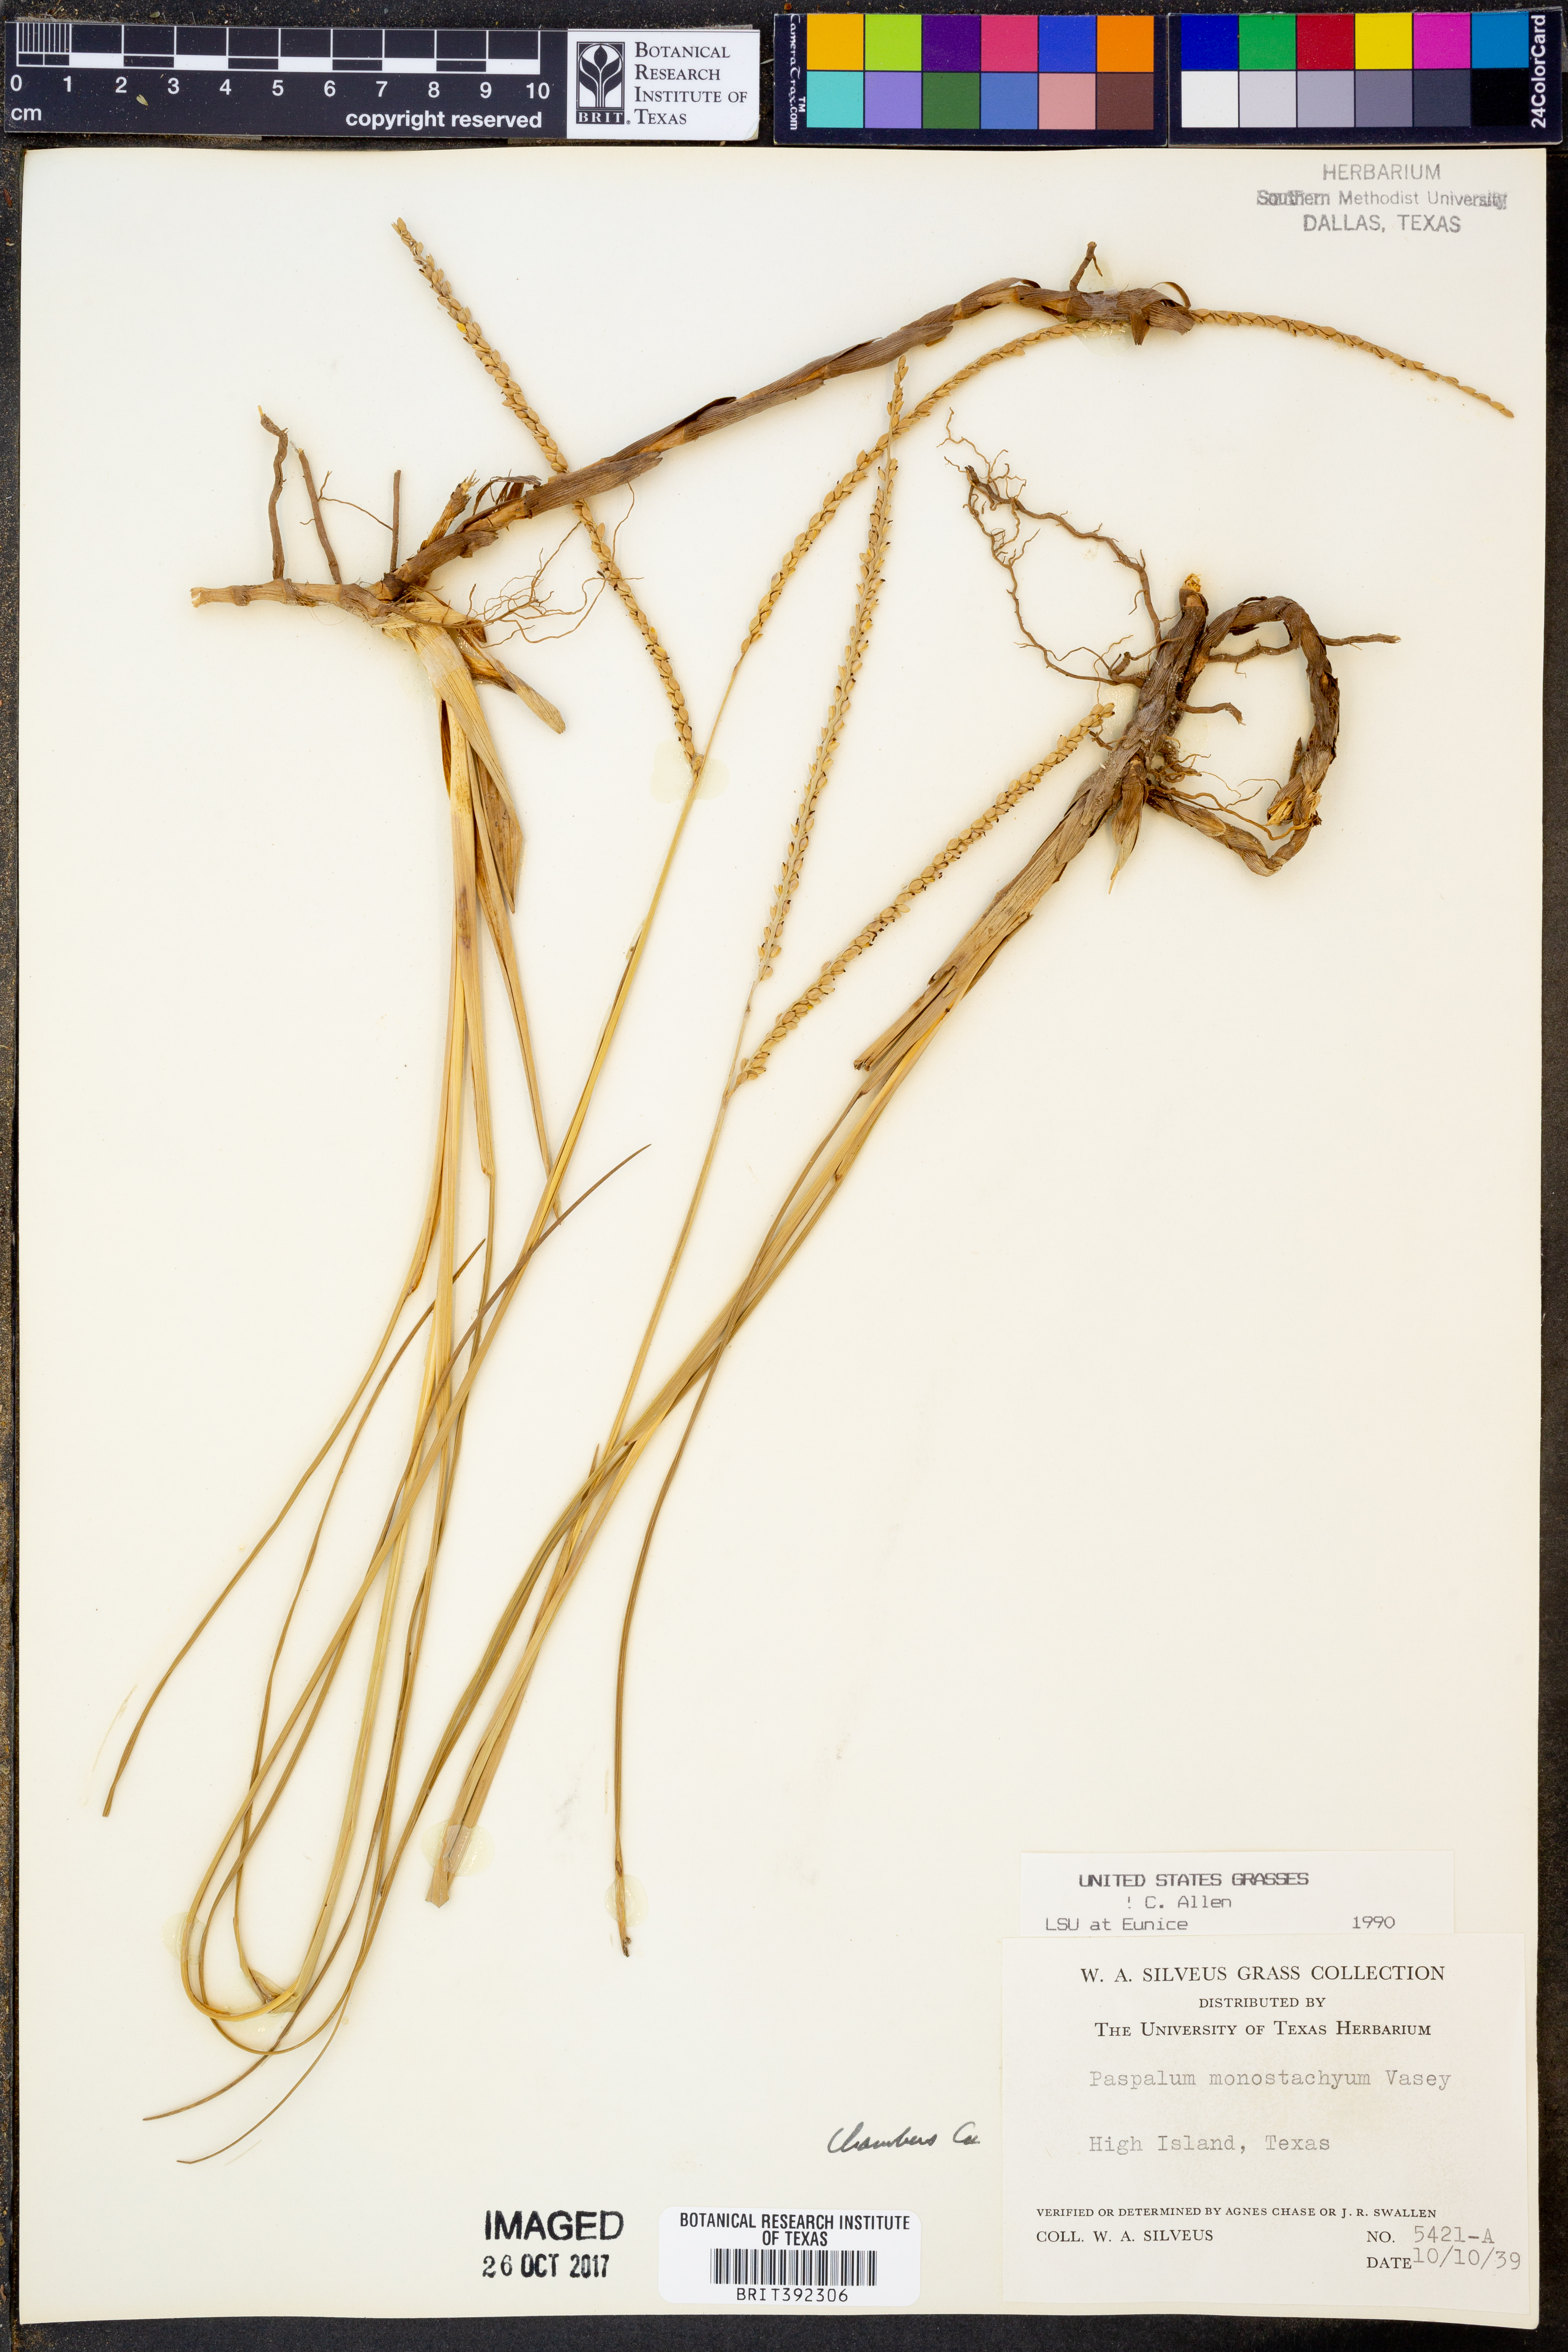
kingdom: Plantae
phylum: Tracheophyta
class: Liliopsida
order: Poales
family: Poaceae
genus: Paspalum
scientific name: Paspalum monostachyum
